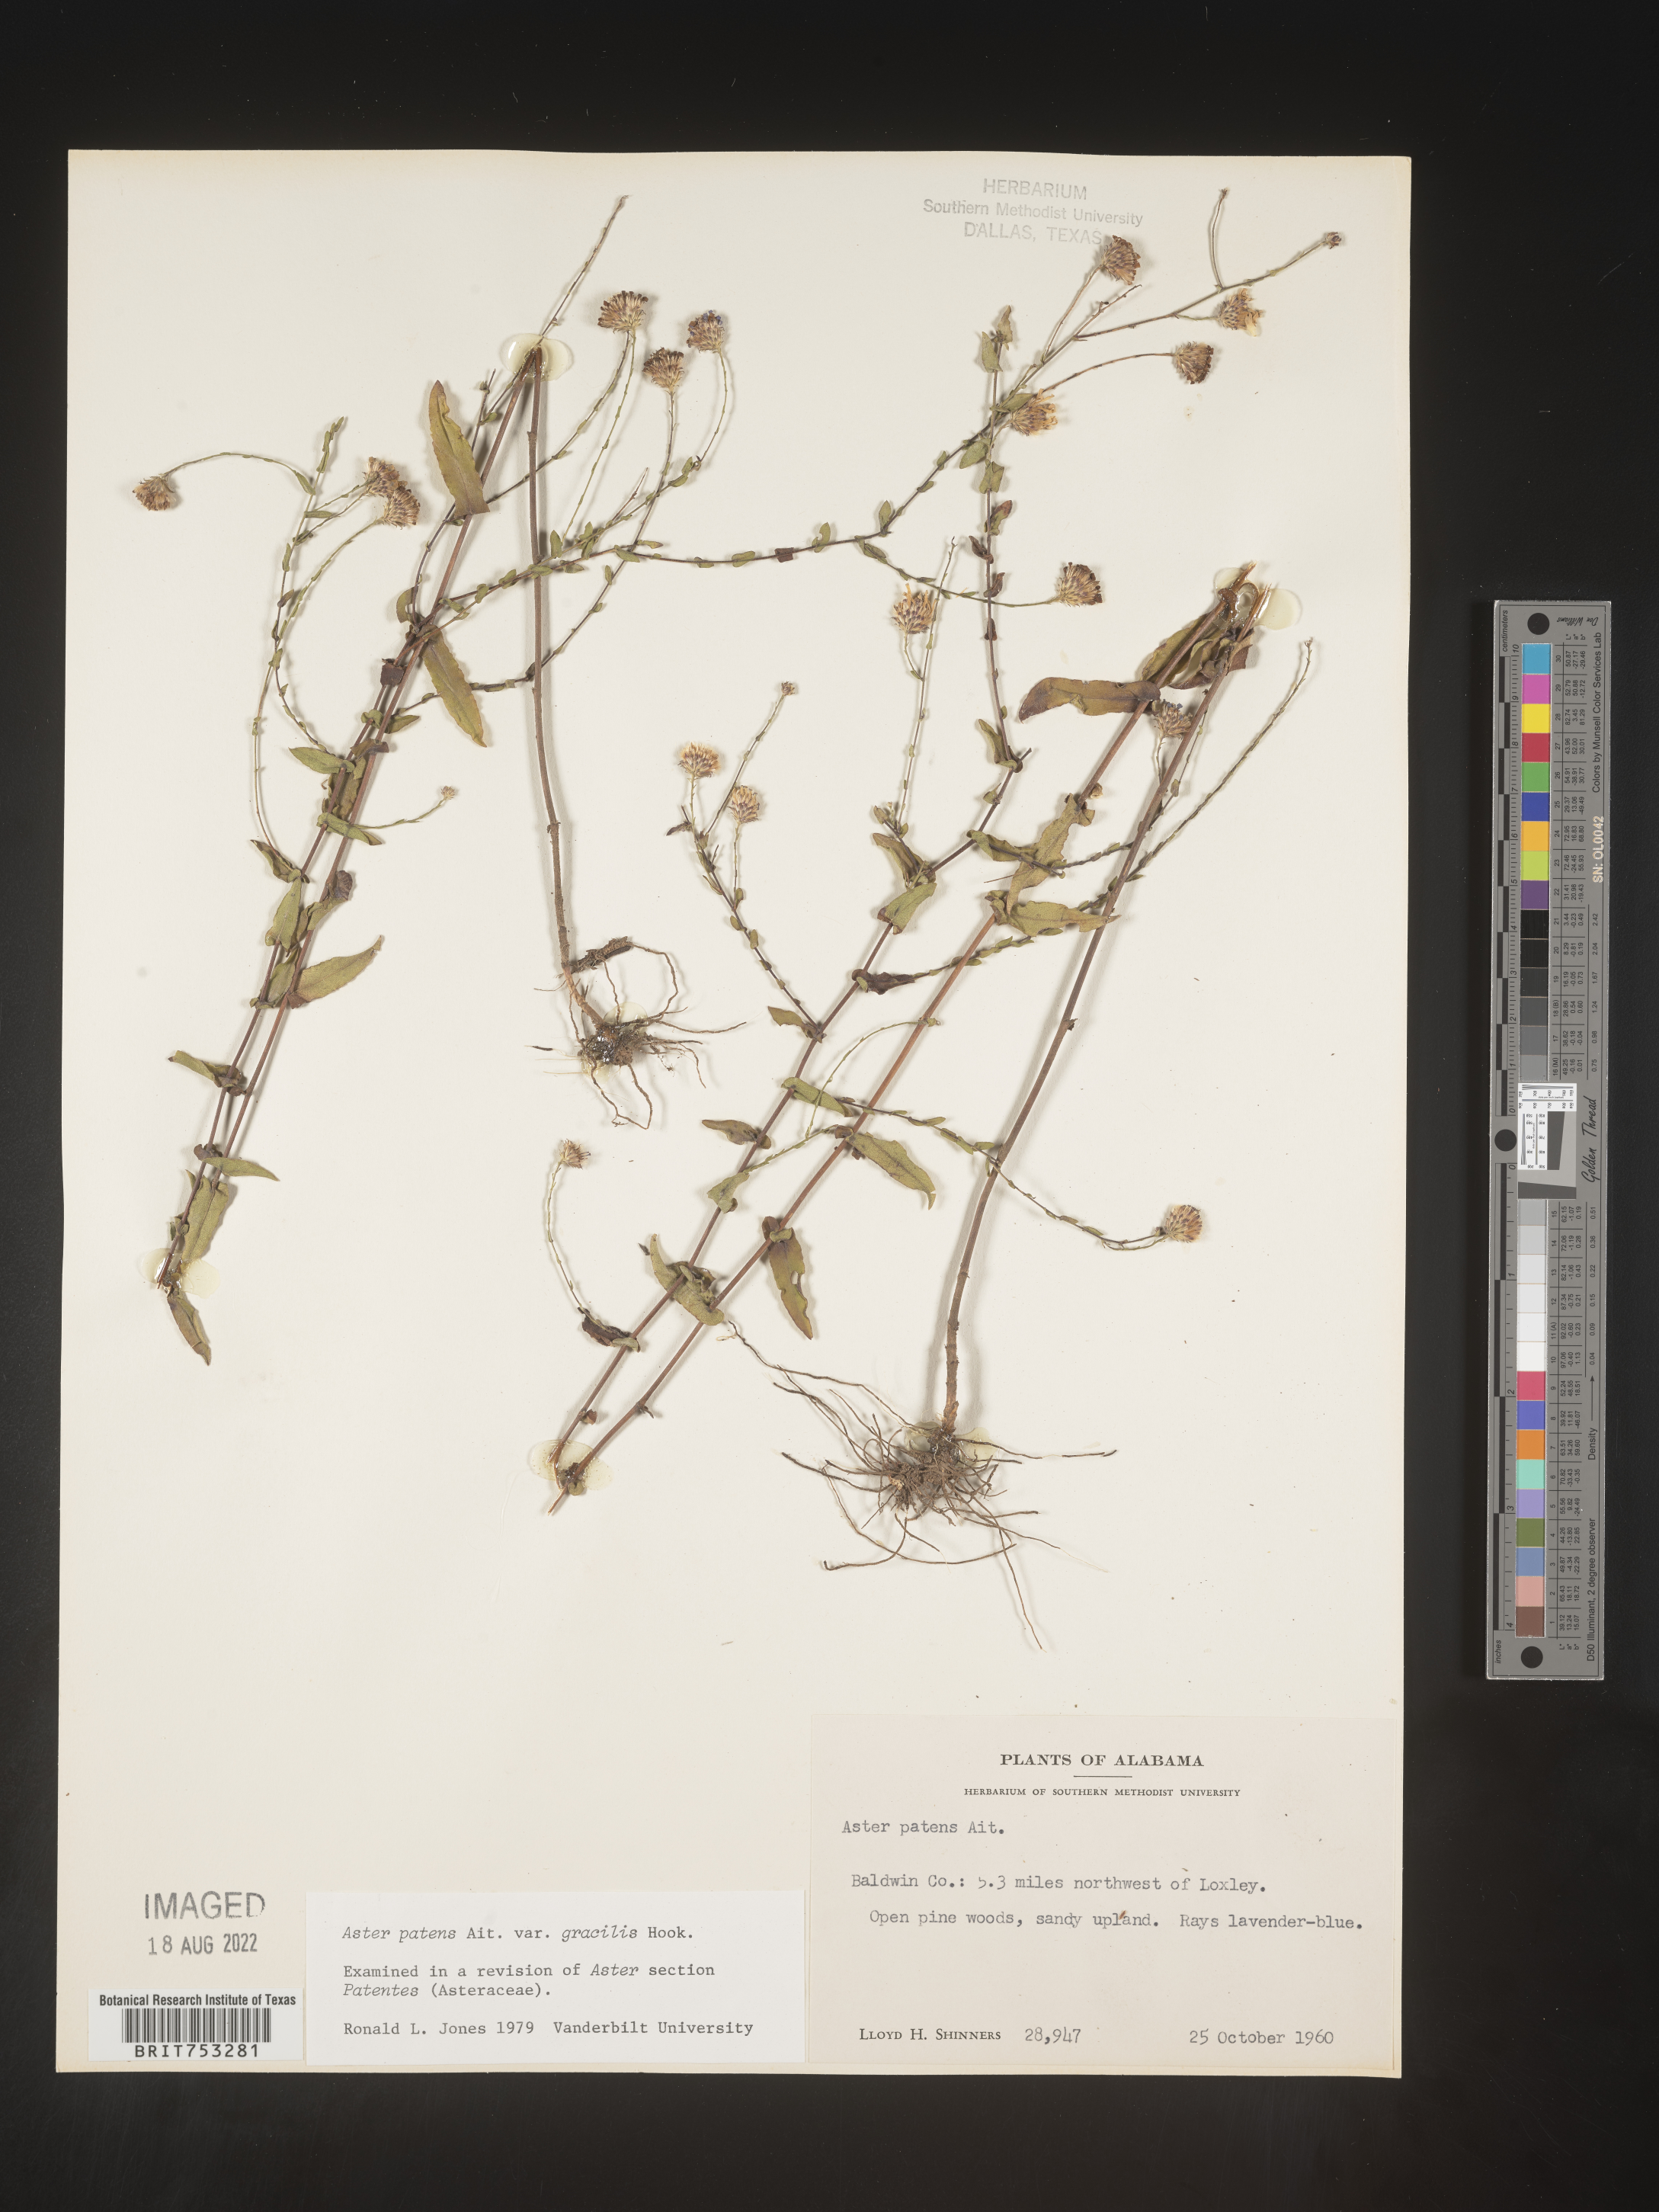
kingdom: Plantae
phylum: Tracheophyta
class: Magnoliopsida
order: Asterales
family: Asteraceae
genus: Symphyotrichum
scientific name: Symphyotrichum patens
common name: Late purple aster
